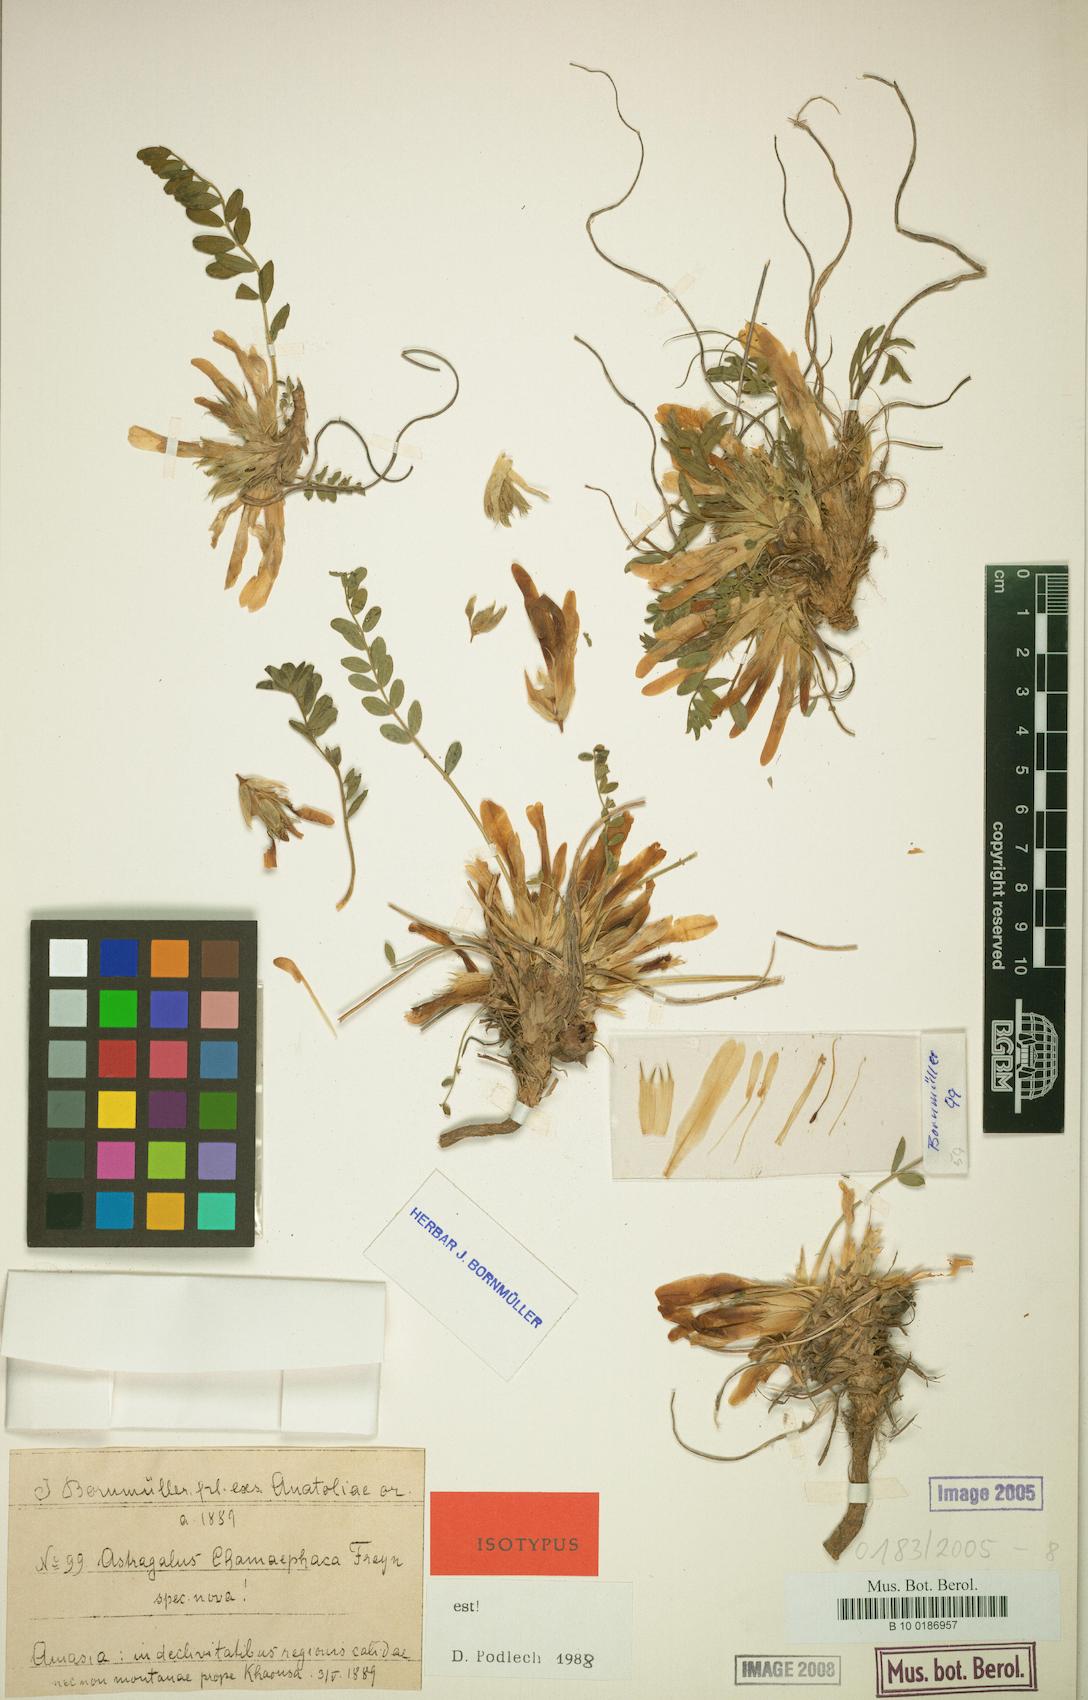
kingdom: Plantae
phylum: Tracheophyta
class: Magnoliopsida
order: Fabales
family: Fabaceae
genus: Astragalus
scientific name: Astragalus chamaephaca
